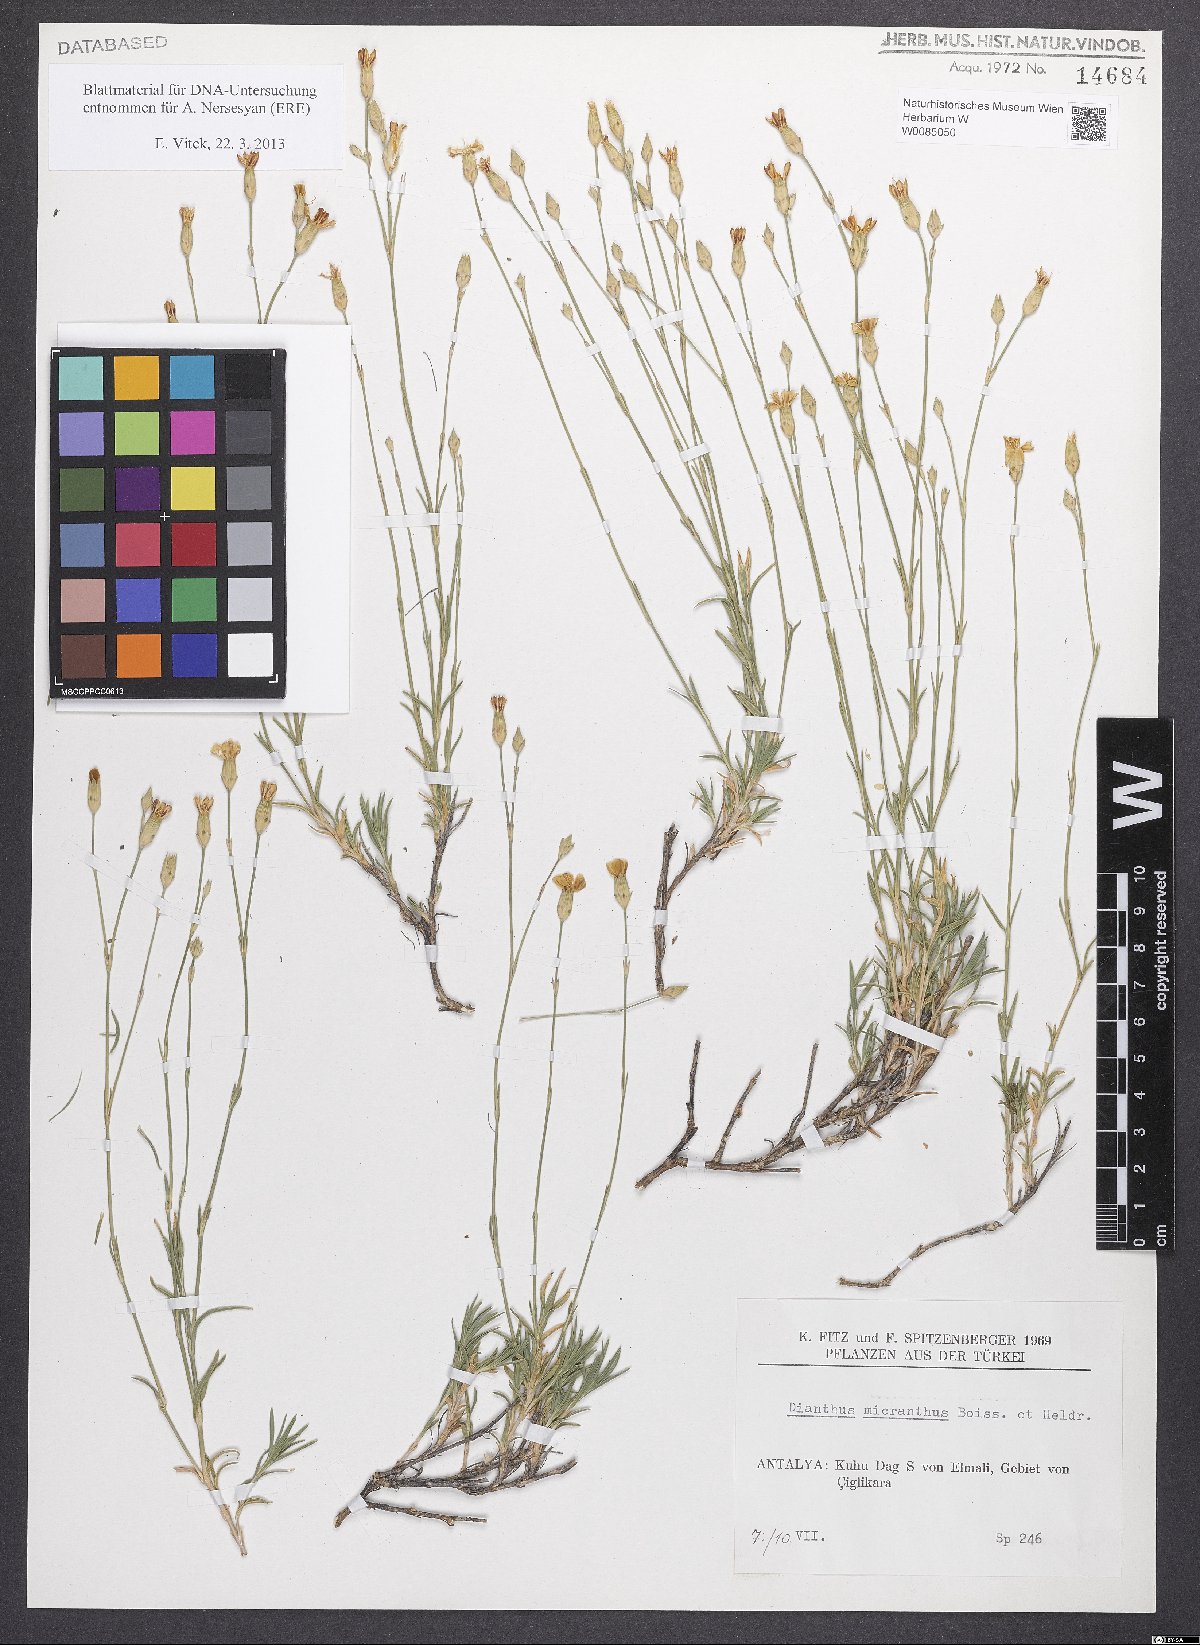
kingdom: Plantae
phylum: Tracheophyta
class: Magnoliopsida
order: Caryophyllales
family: Caryophyllaceae
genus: Dianthus
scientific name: Dianthus micranthus
